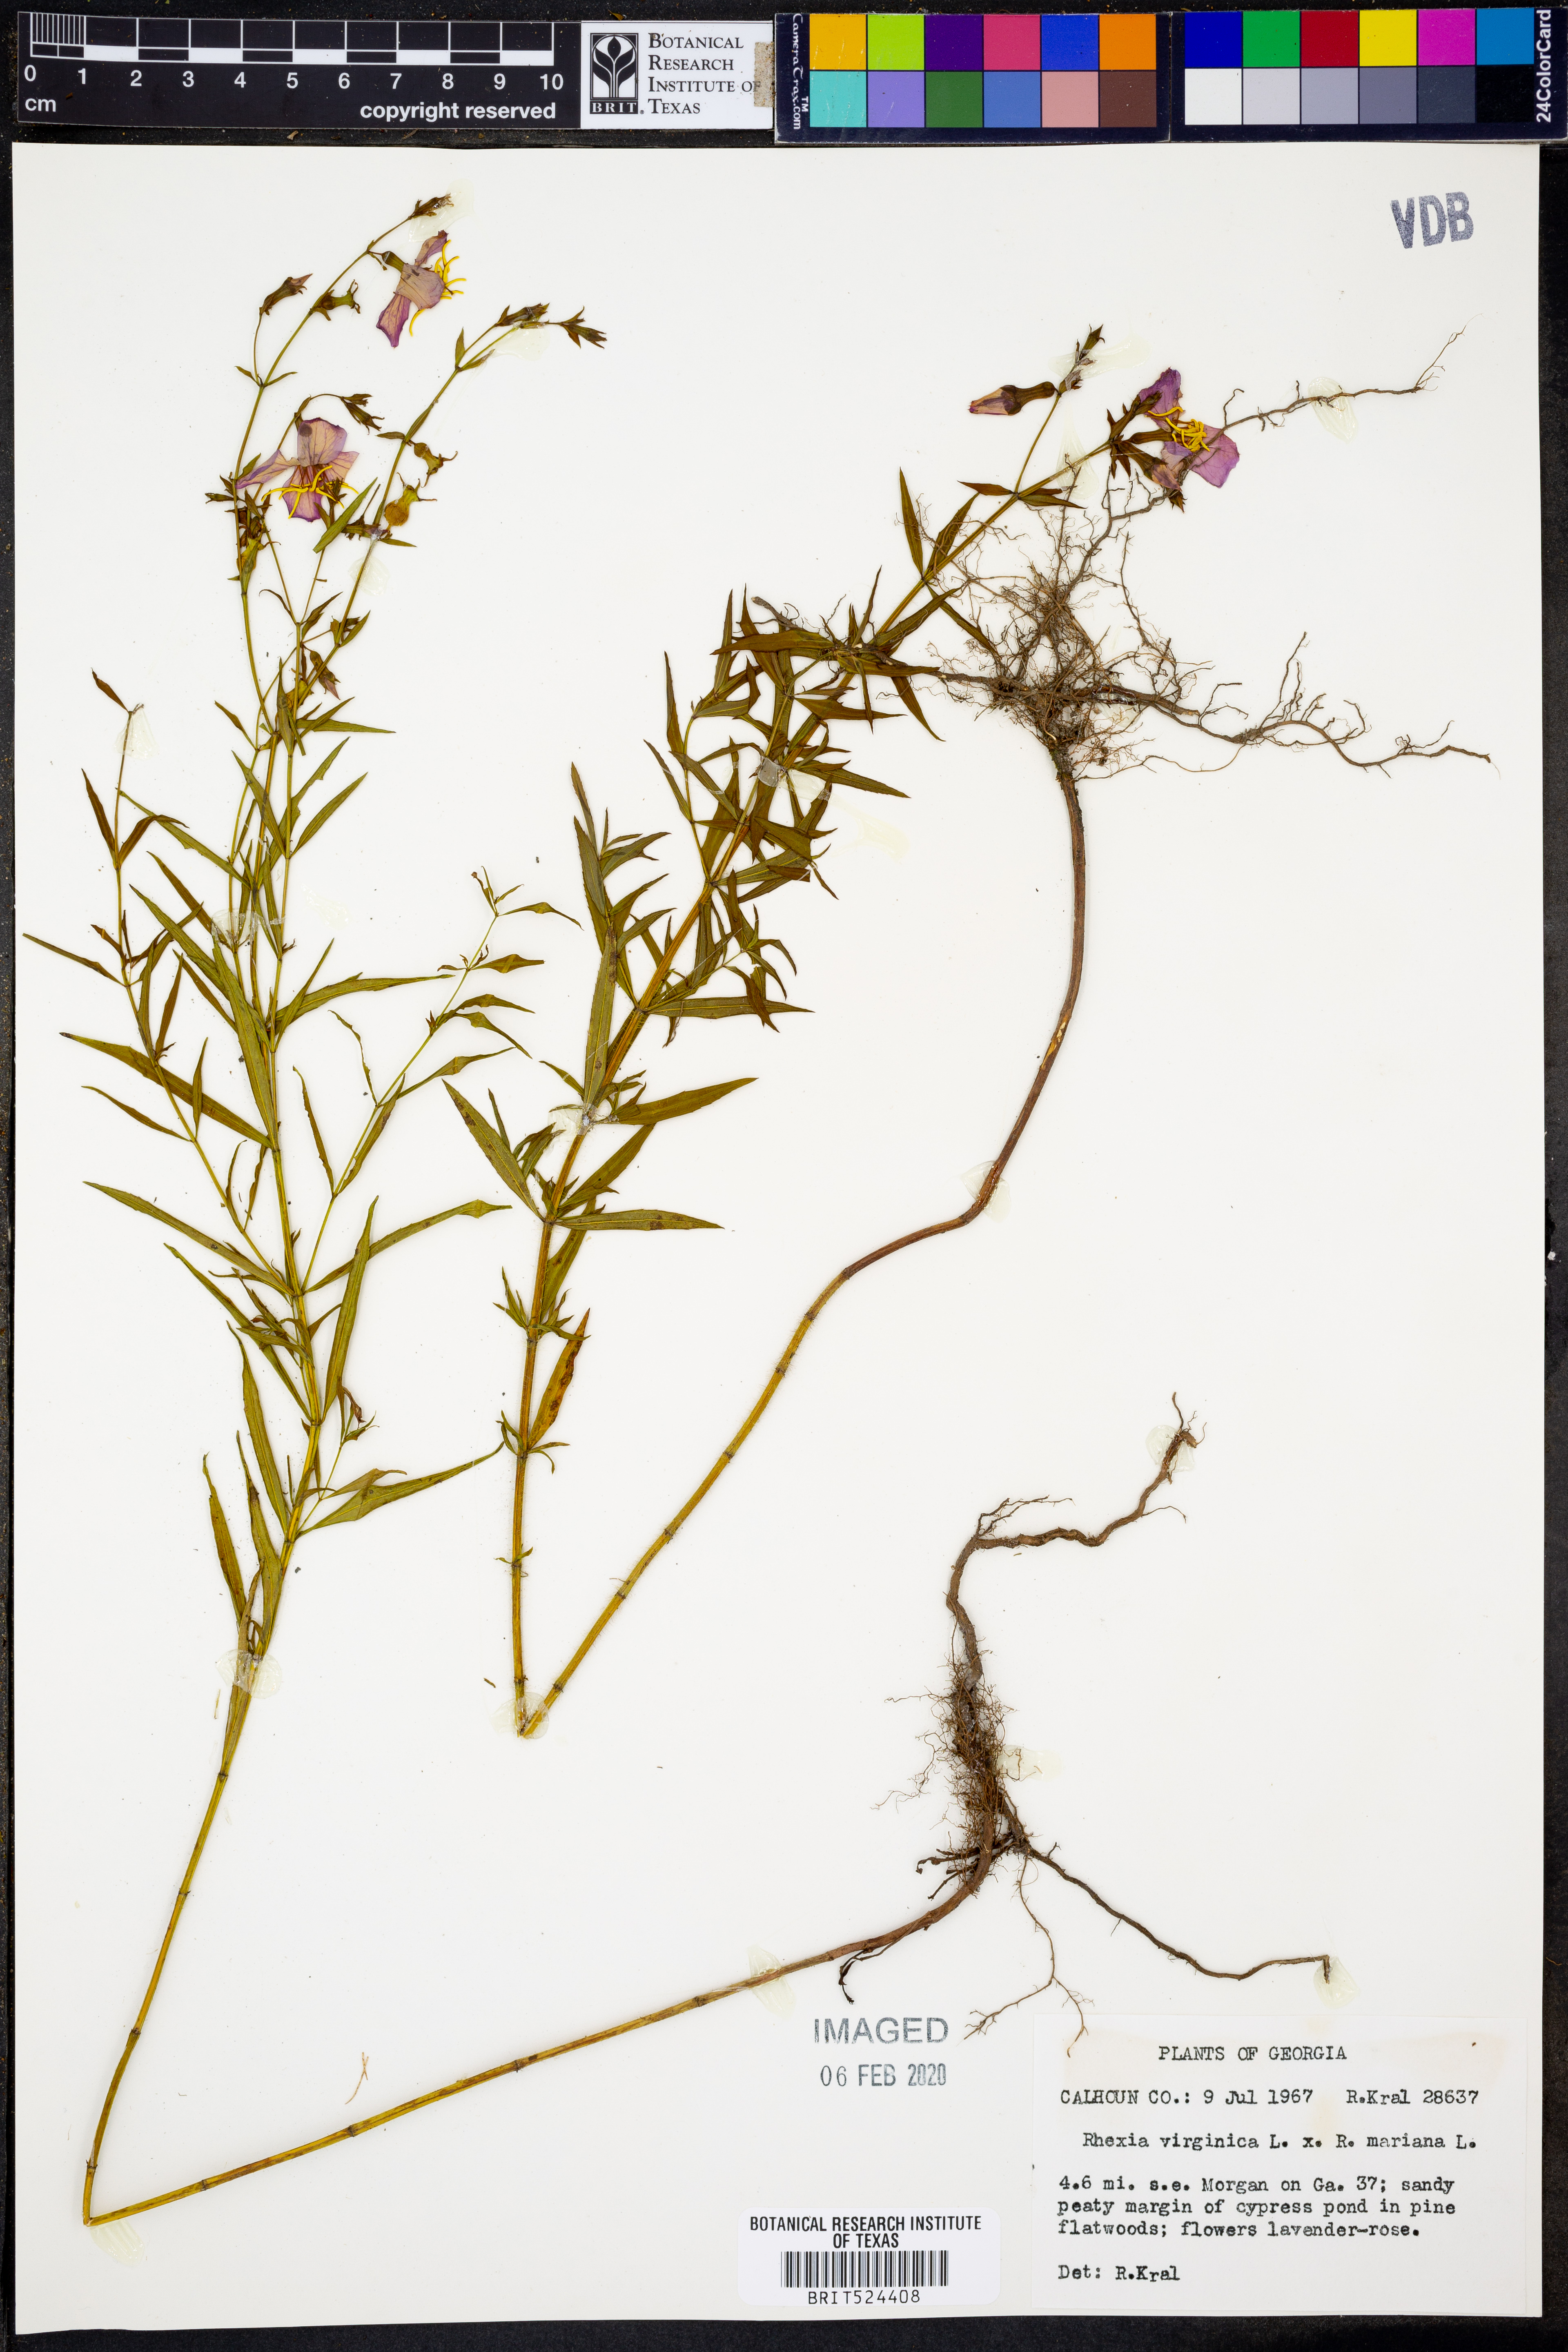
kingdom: Plantae
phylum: Tracheophyta
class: Magnoliopsida
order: Myrtales
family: Melastomataceae
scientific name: Melastomataceae
